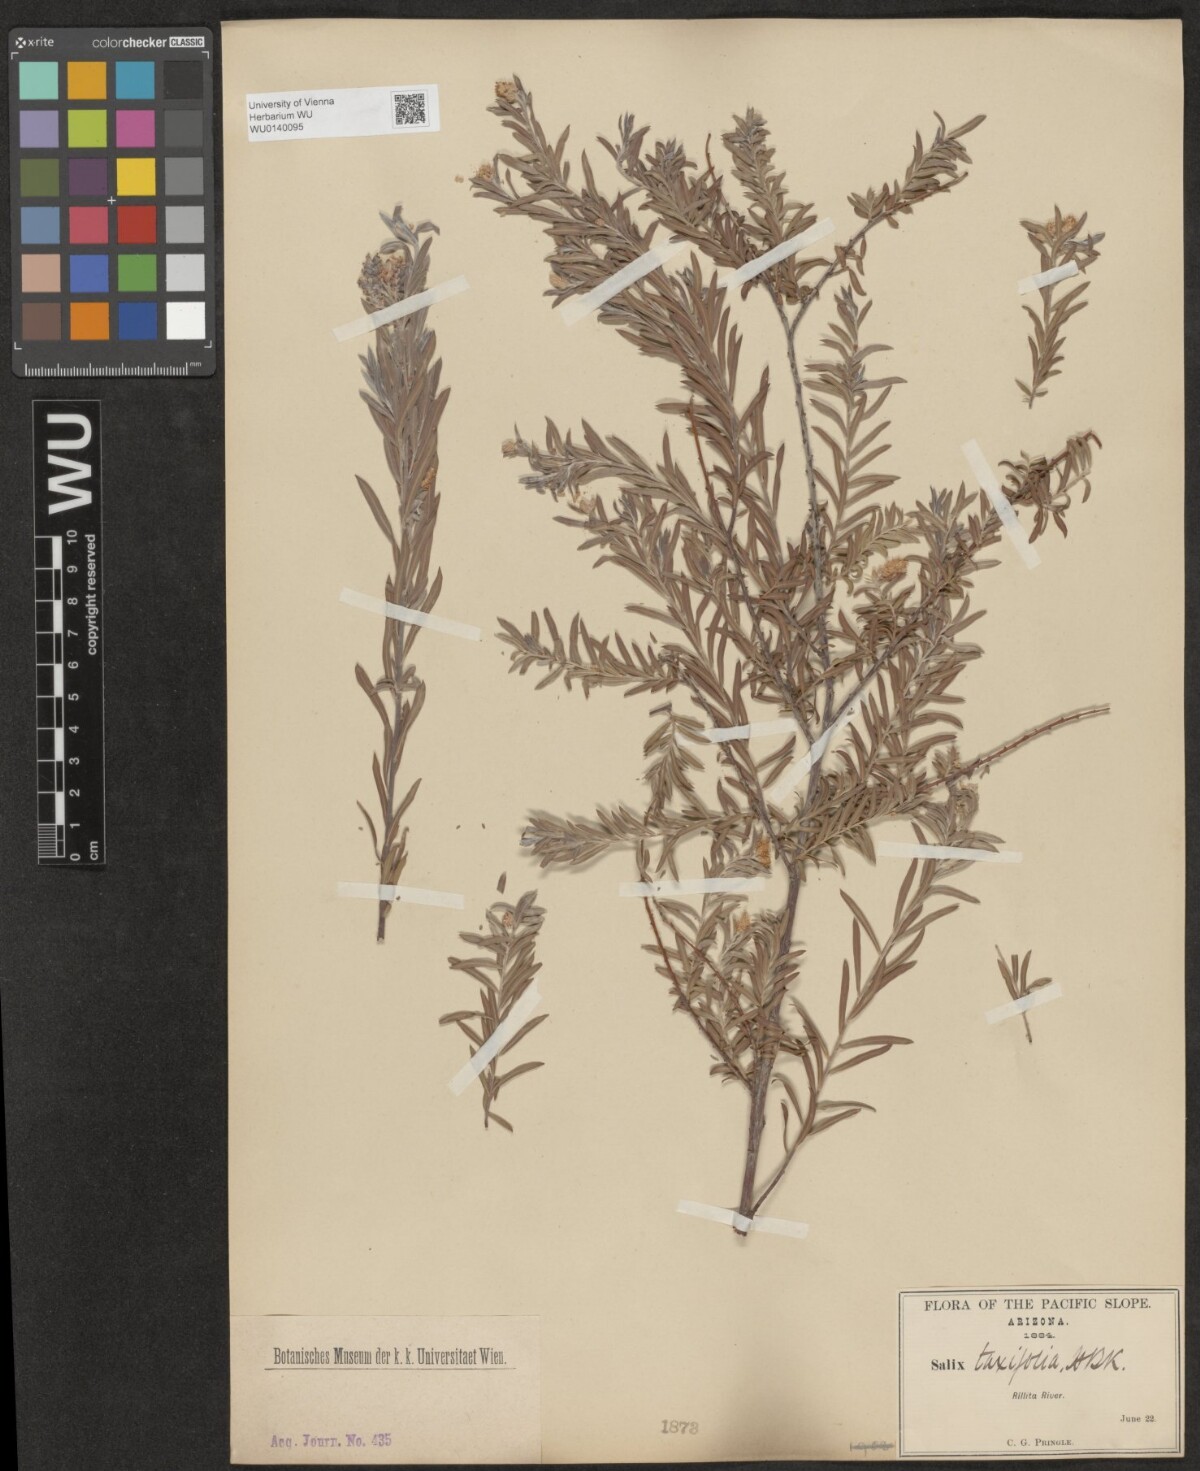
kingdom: Plantae
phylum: Tracheophyta
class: Magnoliopsida
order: Malpighiales
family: Salicaceae
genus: Salix
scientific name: Salix taxifolia
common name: Yew-leaf willow
